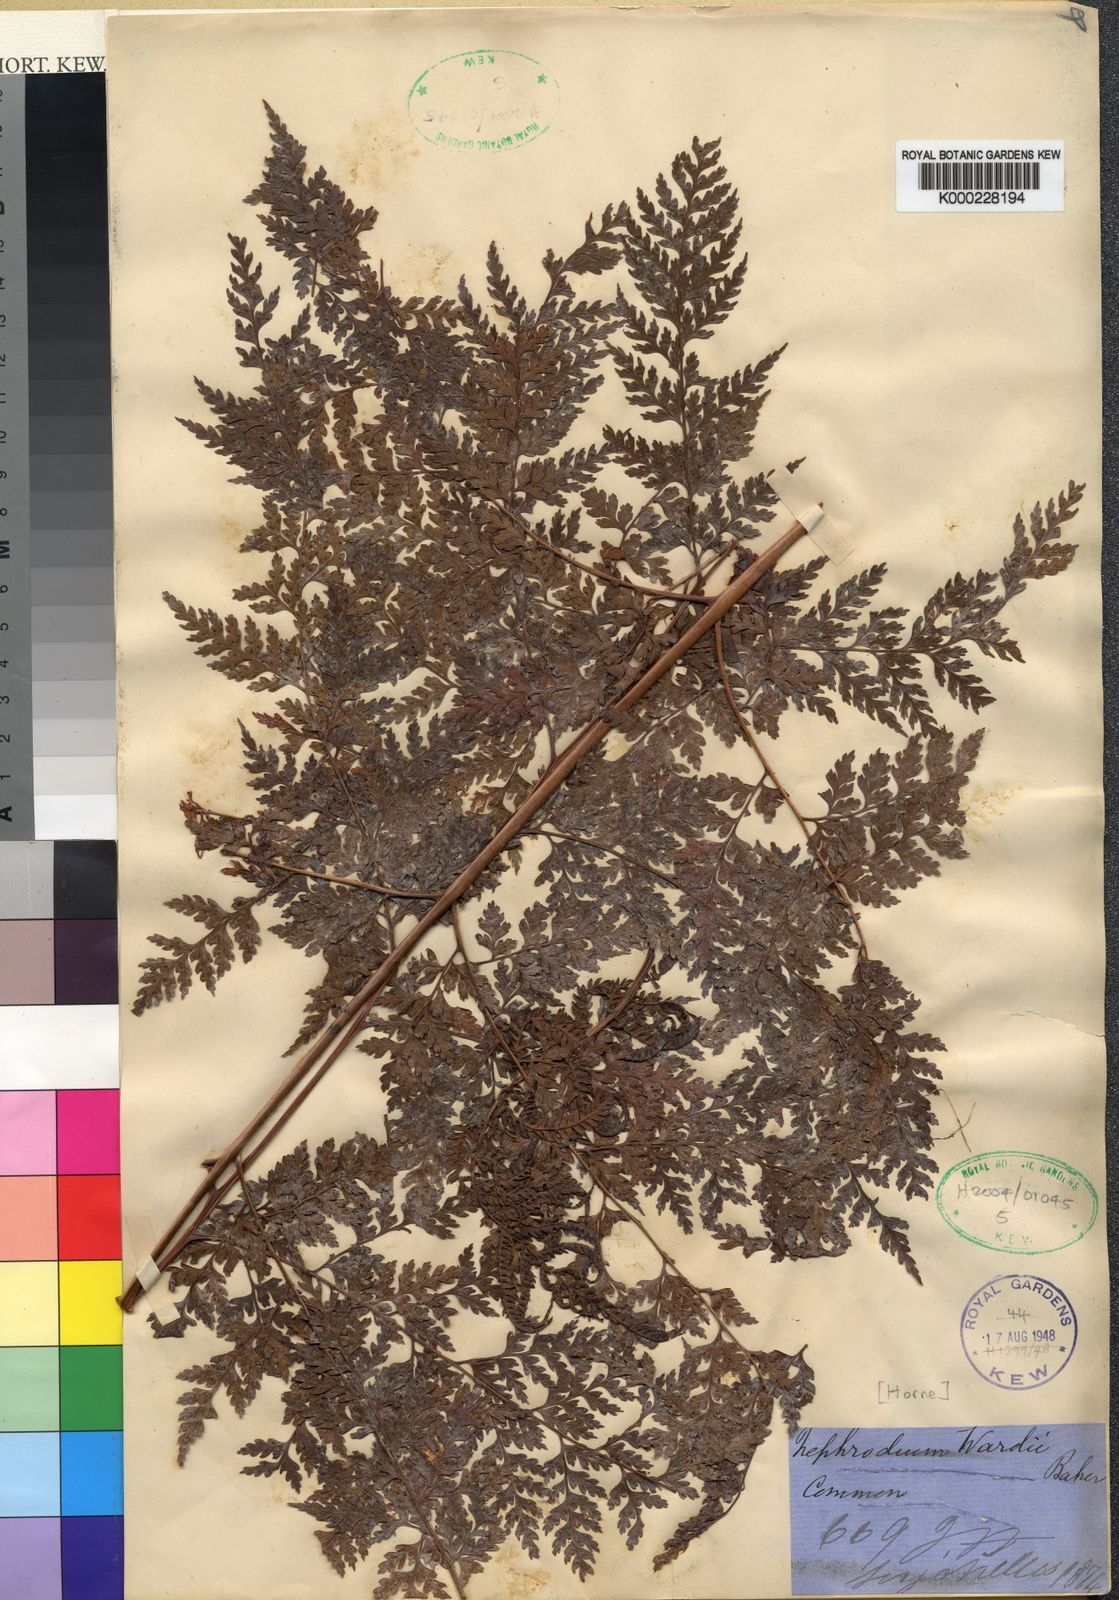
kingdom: Plantae
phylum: Tracheophyta
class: Polypodiopsida
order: Polypodiales
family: Dryopteridaceae
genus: Dryopteris
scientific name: Dryopteris wardii
